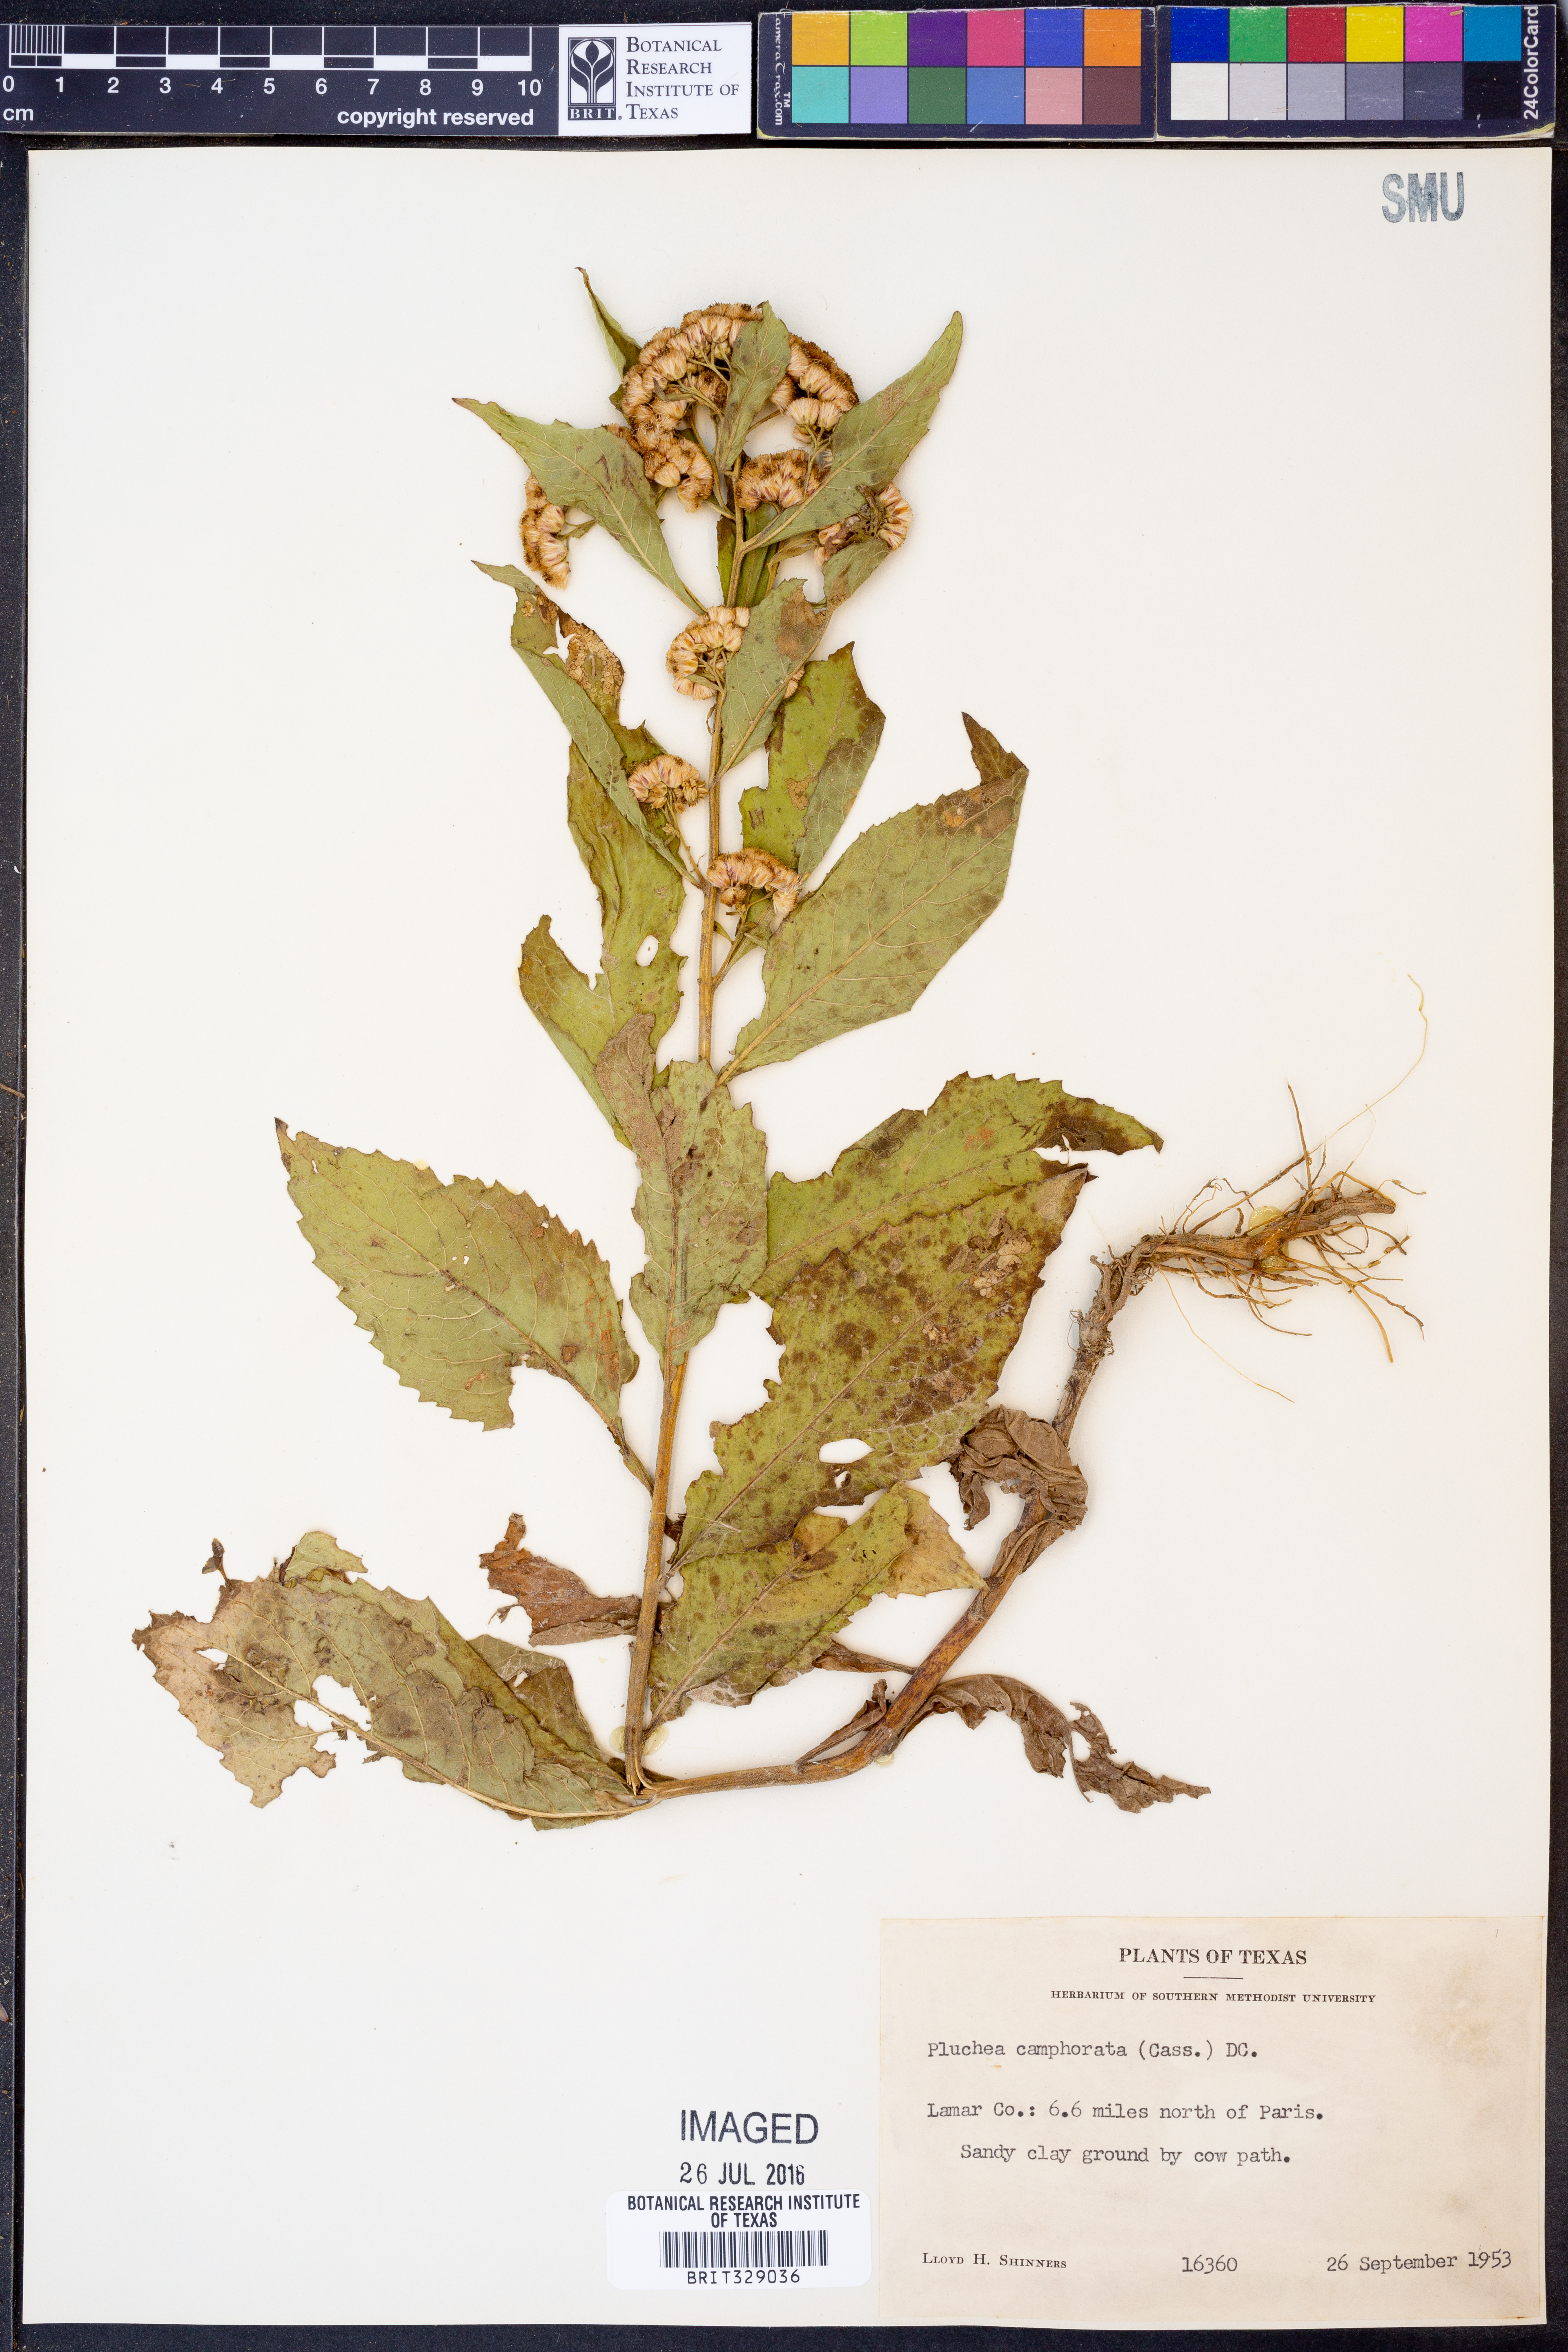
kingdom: Plantae
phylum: Tracheophyta
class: Magnoliopsida
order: Asterales
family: Asteraceae
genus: Pluchea
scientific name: Pluchea camphorata
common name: Camphor pluchea
